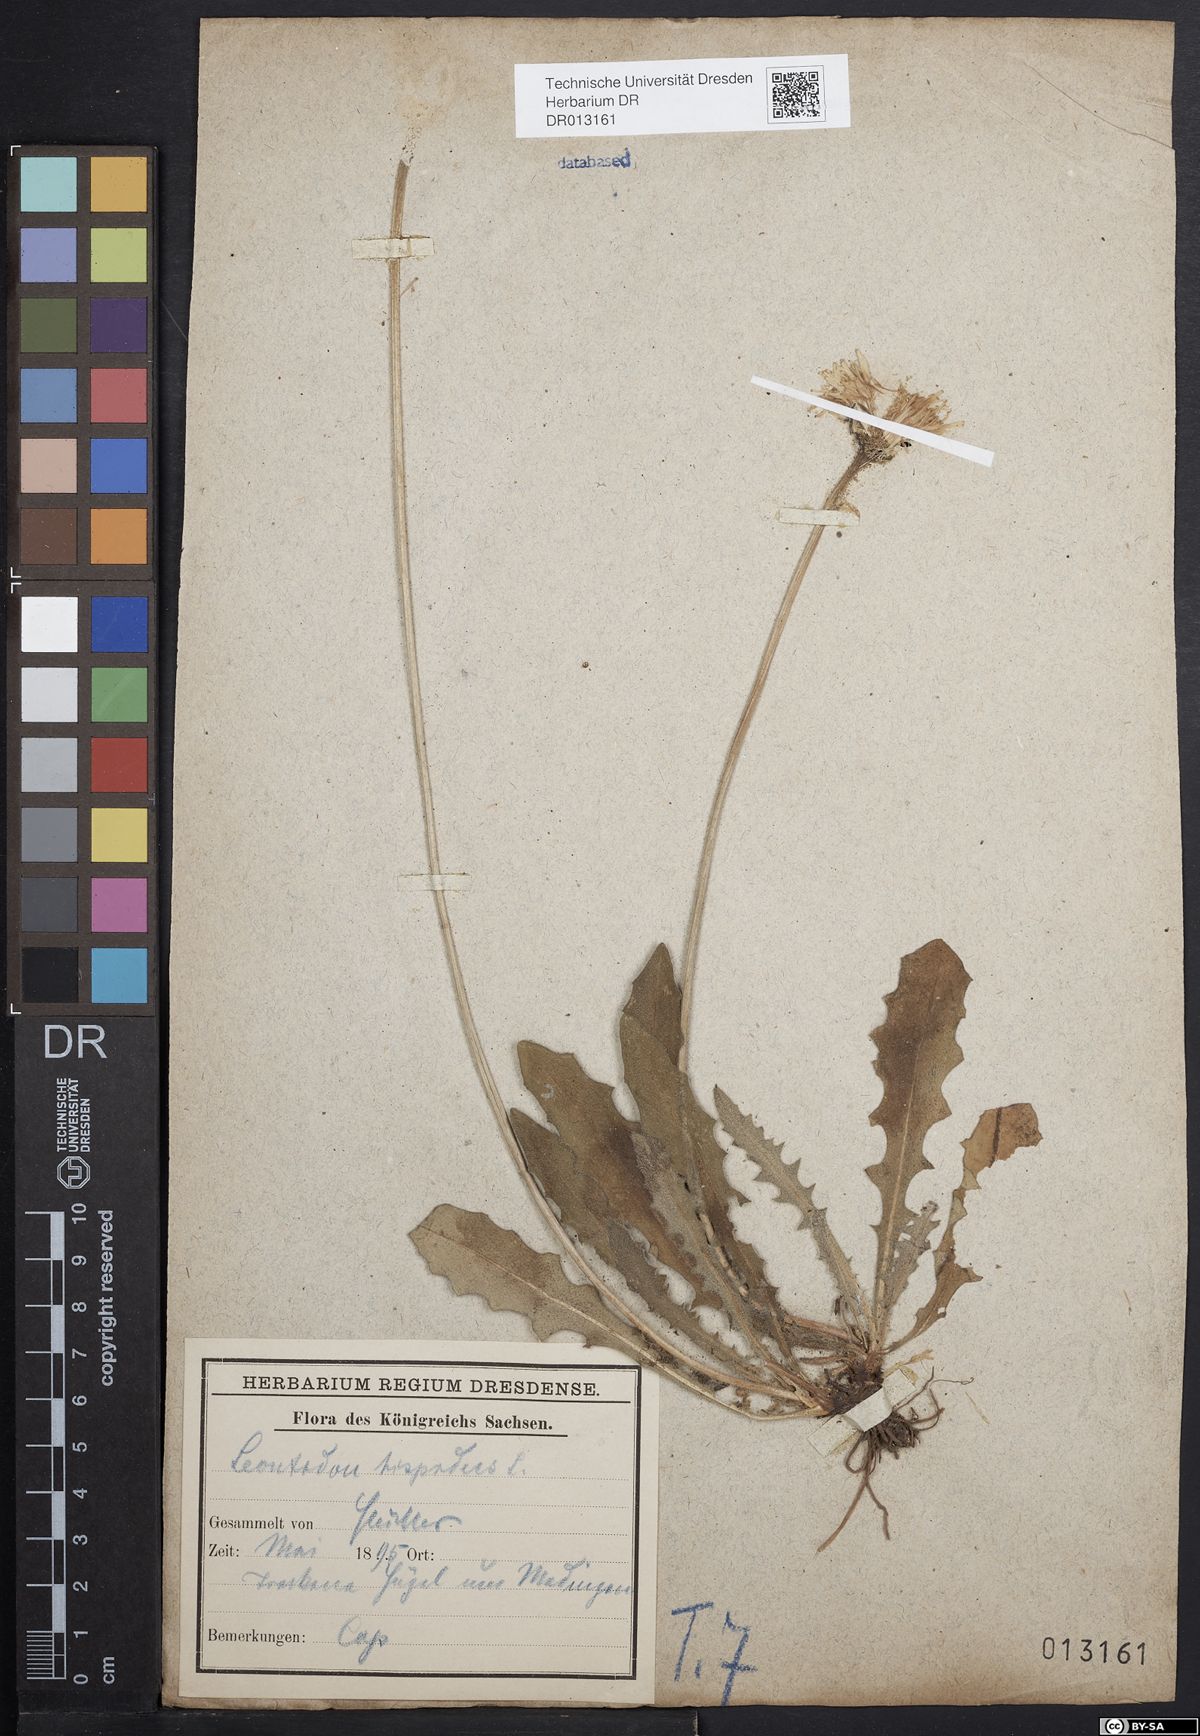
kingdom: Plantae
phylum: Tracheophyta
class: Magnoliopsida
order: Asterales
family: Asteraceae
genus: Leontodon
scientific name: Leontodon hispidus
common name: Rough hawkbit
